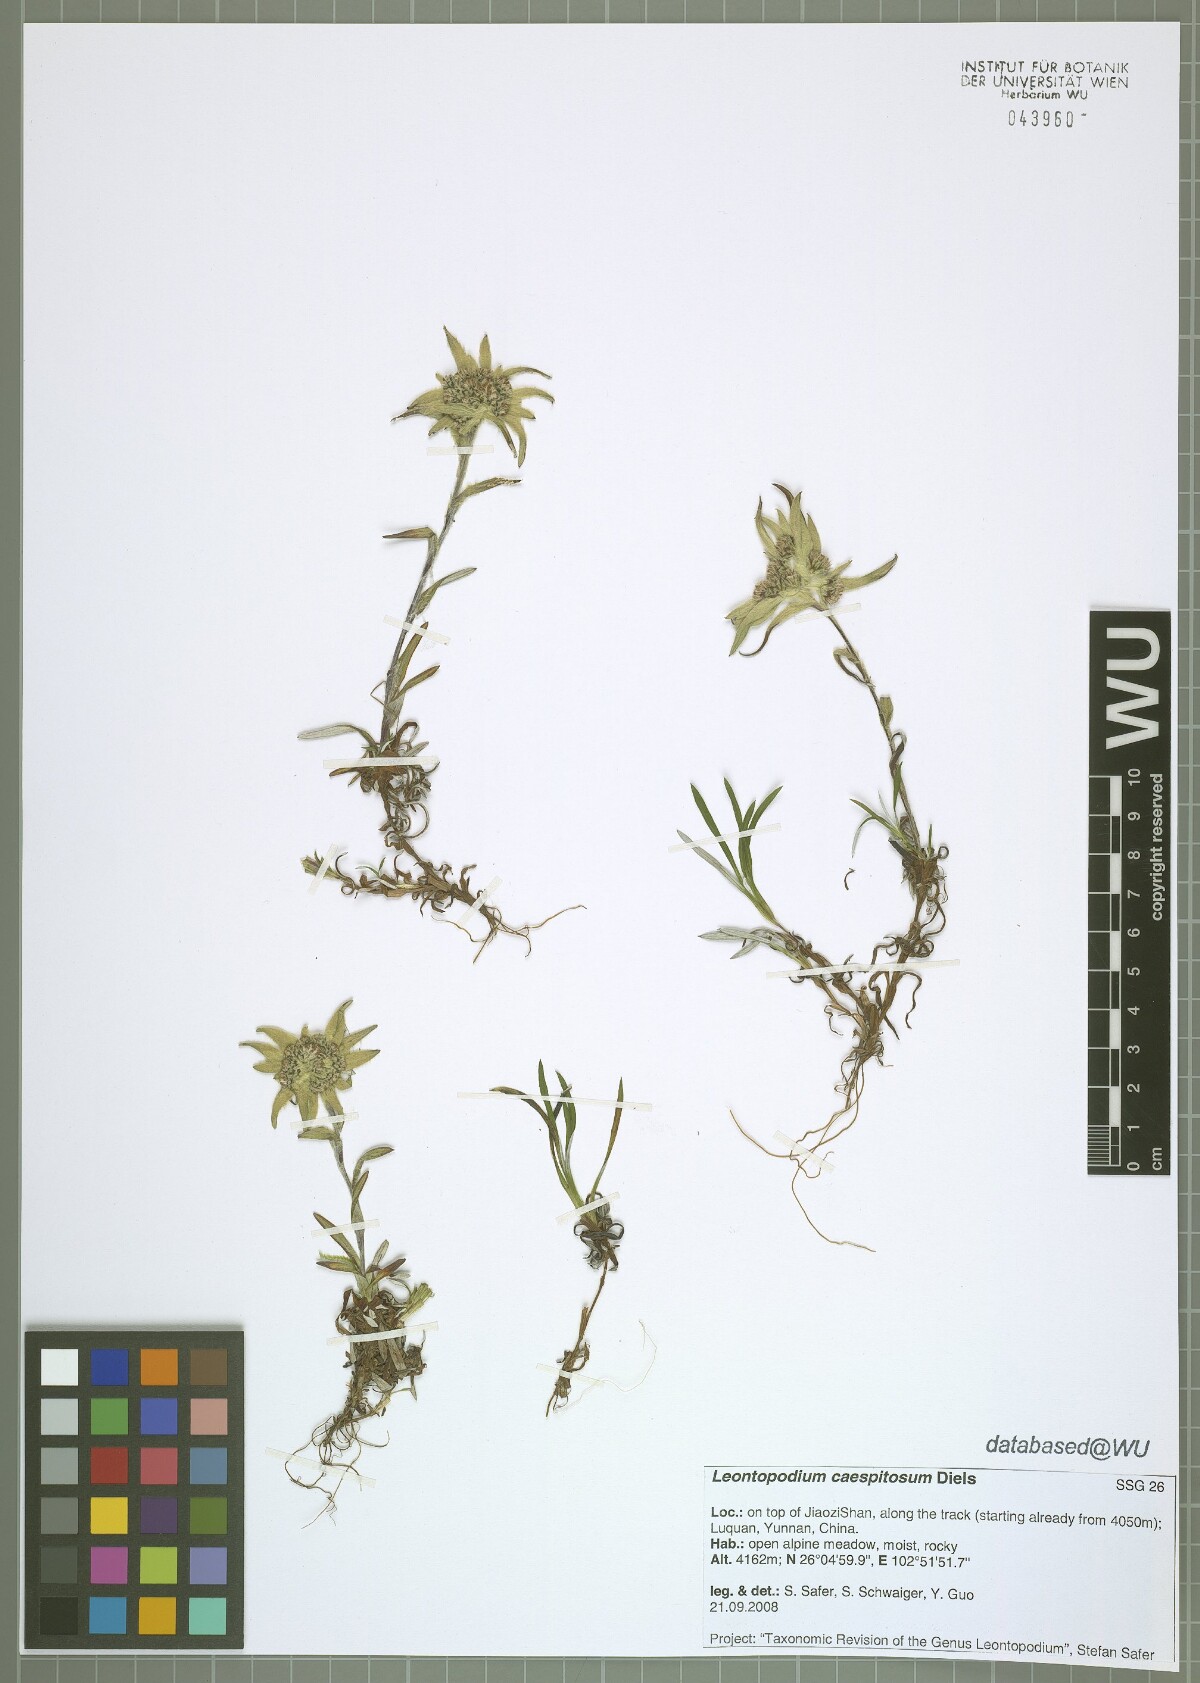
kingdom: Plantae
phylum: Tracheophyta
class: Magnoliopsida
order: Asterales
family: Asteraceae
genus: Leontopodium
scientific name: Leontopodium caespitosum
